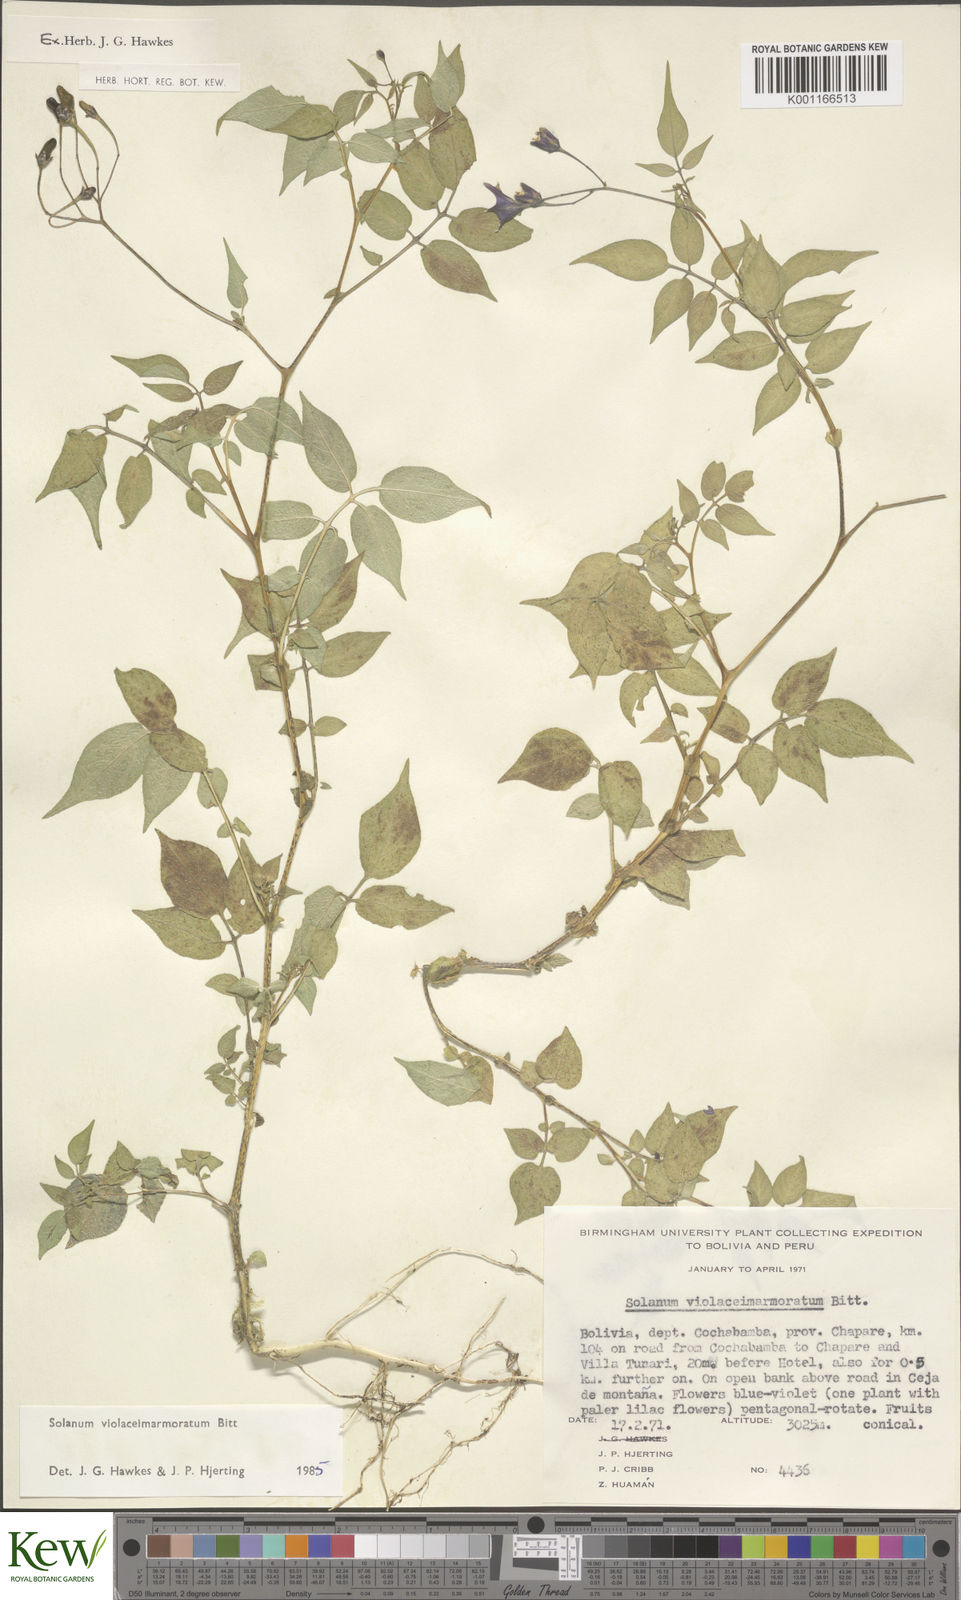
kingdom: Plantae
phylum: Tracheophyta
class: Magnoliopsida
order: Solanales
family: Solanaceae
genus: Solanum
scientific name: Solanum violaceimarmoratum
